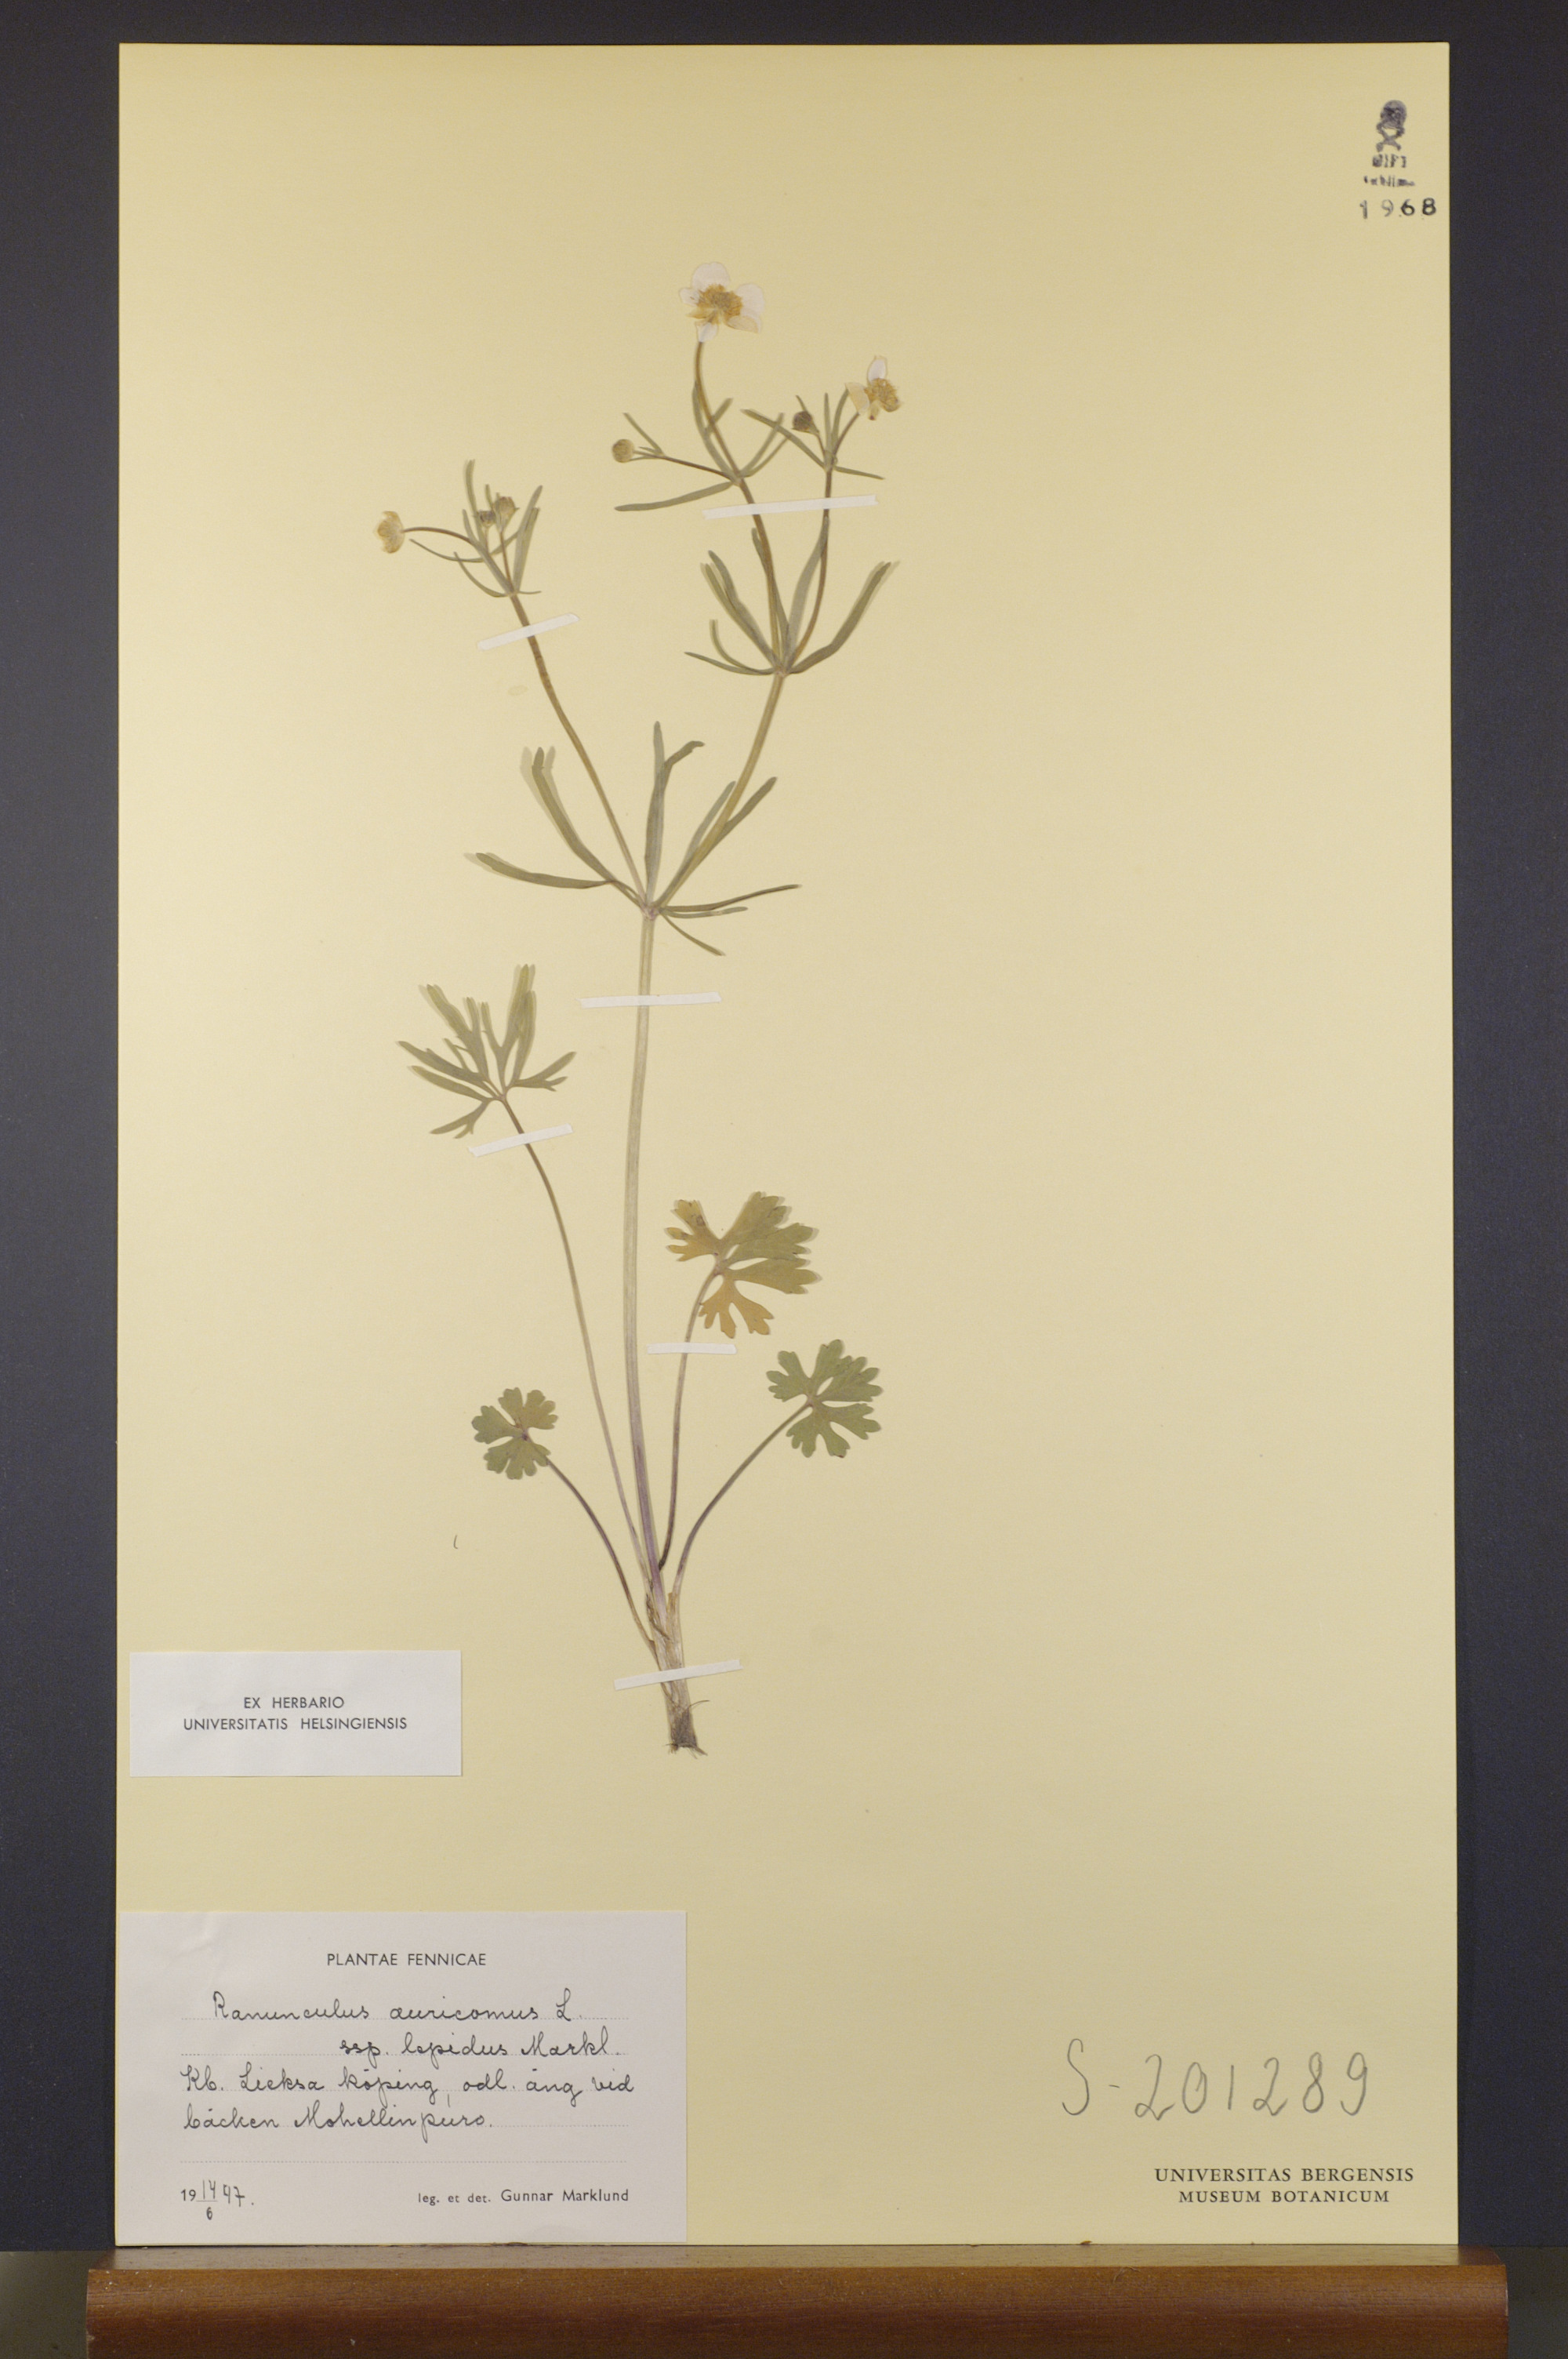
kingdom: Plantae
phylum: Tracheophyta
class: Magnoliopsida
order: Ranunculales
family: Ranunculaceae
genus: Ranunculus
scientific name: Ranunculus lepidus
